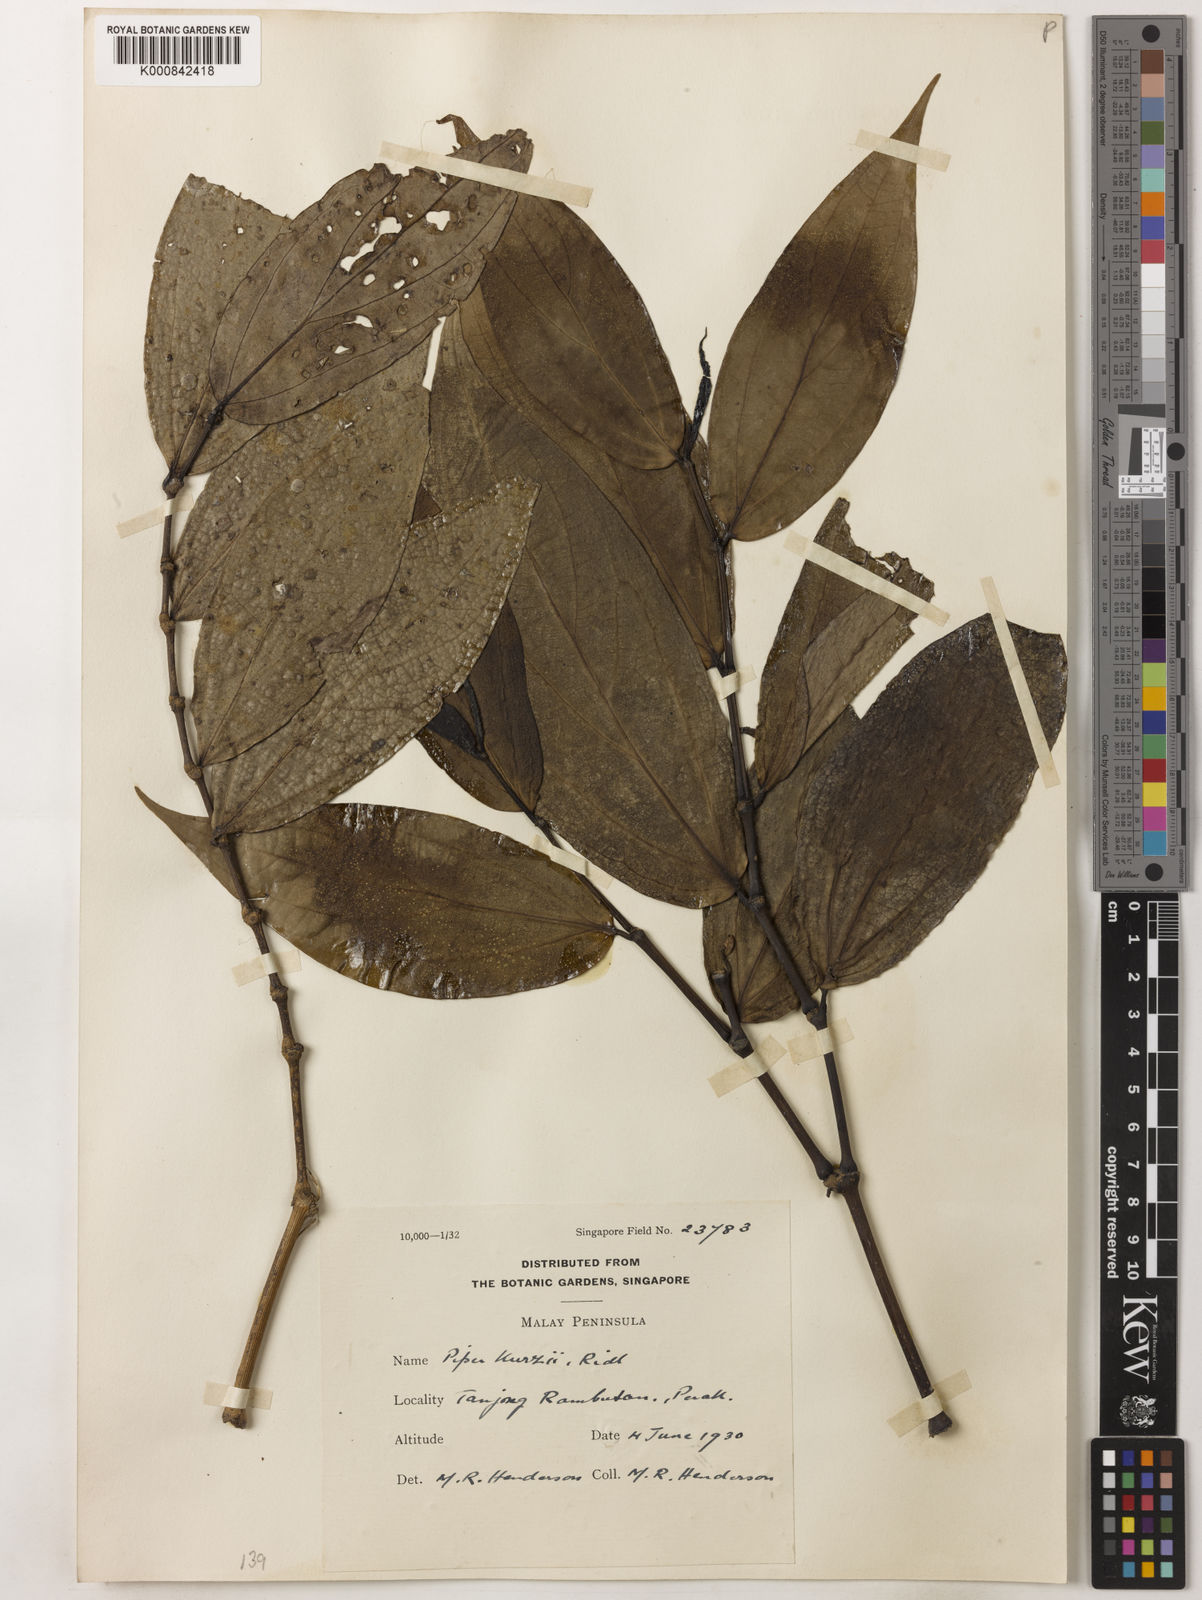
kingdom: Plantae
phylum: Tracheophyta
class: Magnoliopsida
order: Piperales
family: Piperaceae
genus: Piper
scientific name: Piper kurzii
